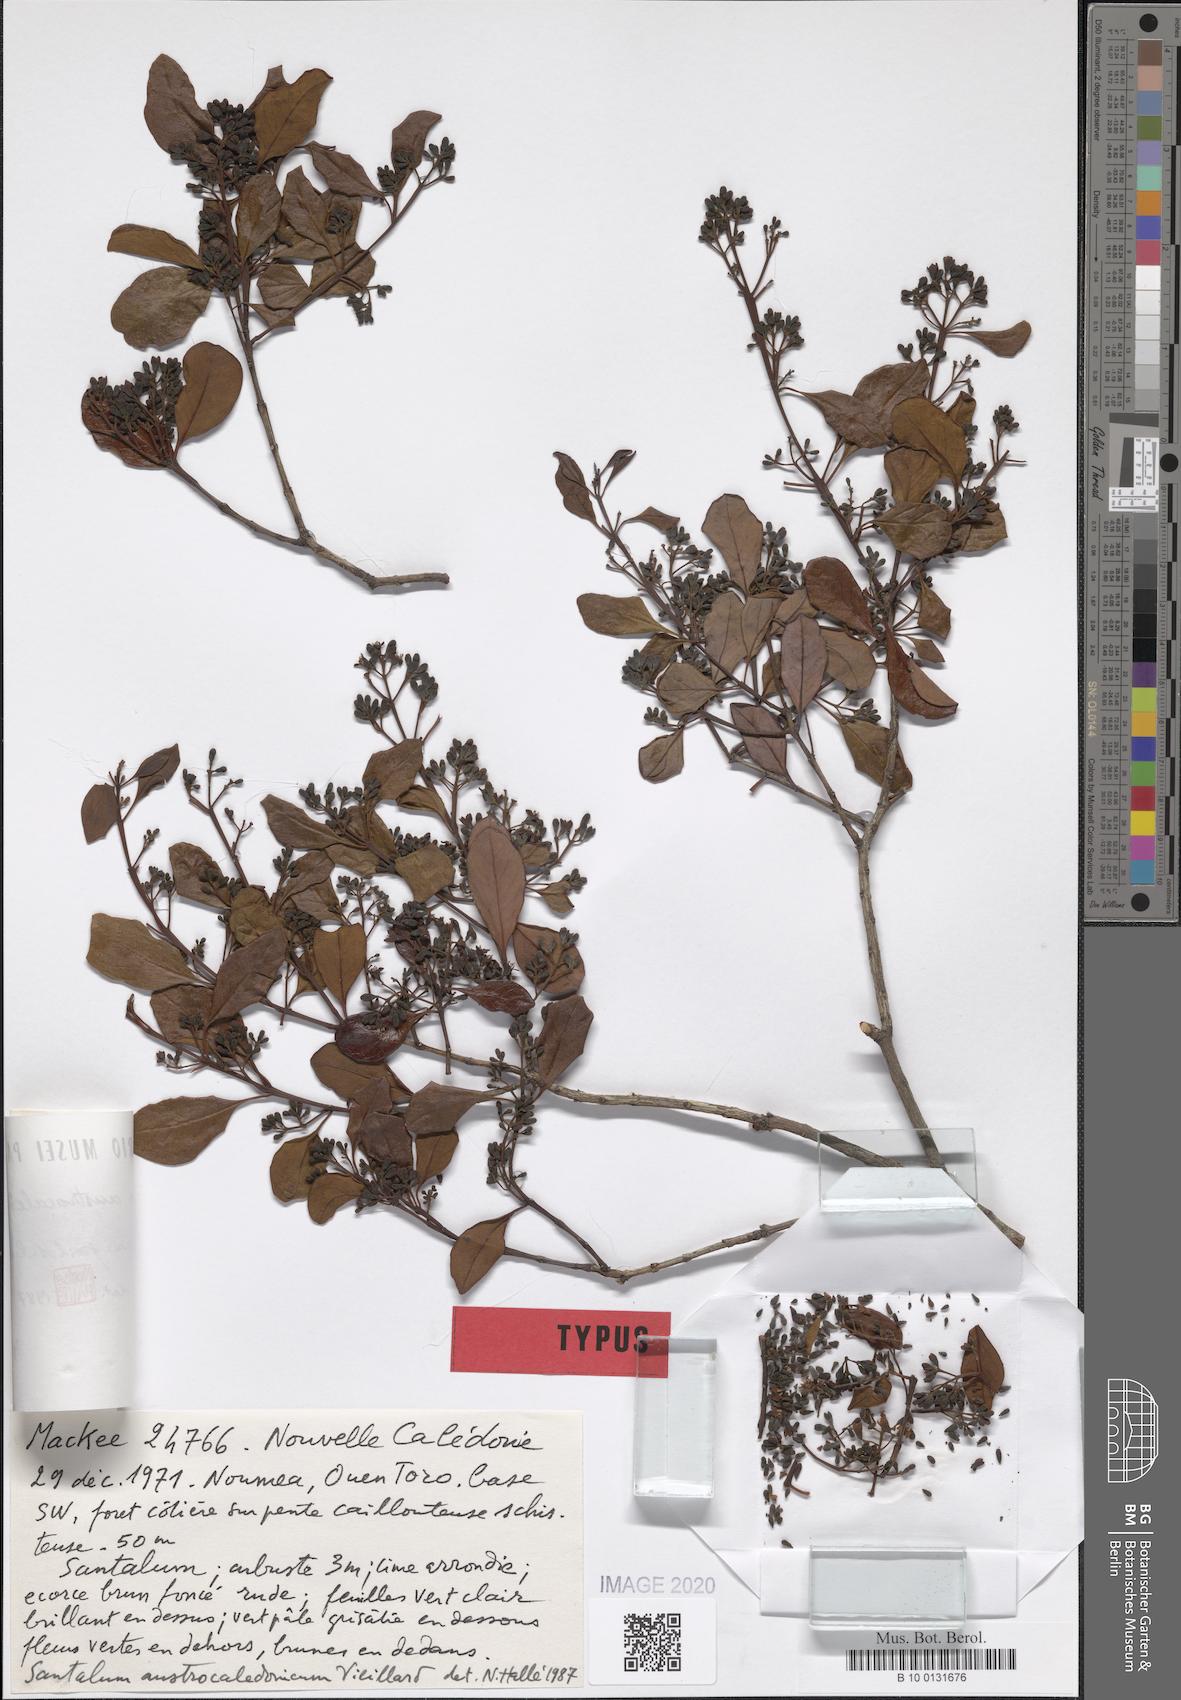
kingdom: Plantae
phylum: Tracheophyta
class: Magnoliopsida
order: Santalales
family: Santalaceae
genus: Santalum
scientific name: Santalum austrocaledonicum
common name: Coral sea sandalwood
